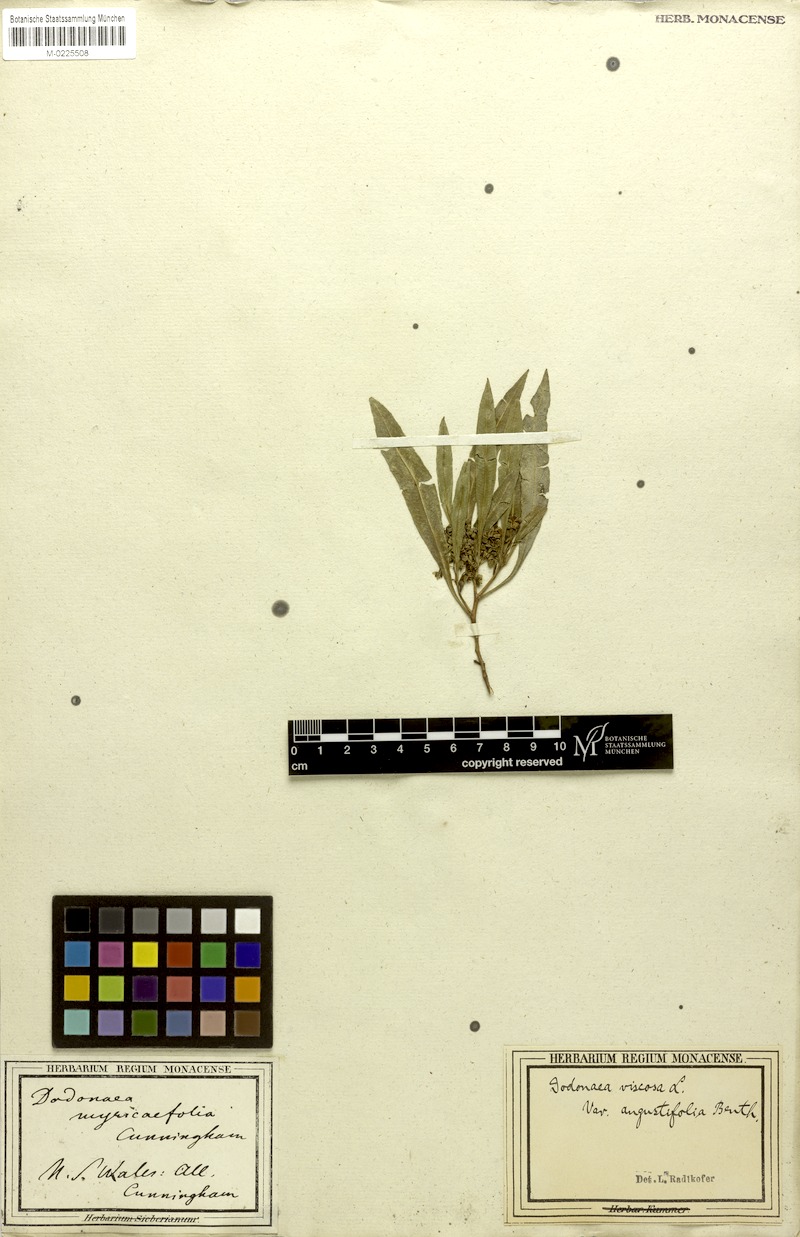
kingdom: Plantae
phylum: Tracheophyta
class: Magnoliopsida
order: Sapindales
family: Sapindaceae
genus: Dodonaea
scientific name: Dodonaea viscosa
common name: Hopbush
